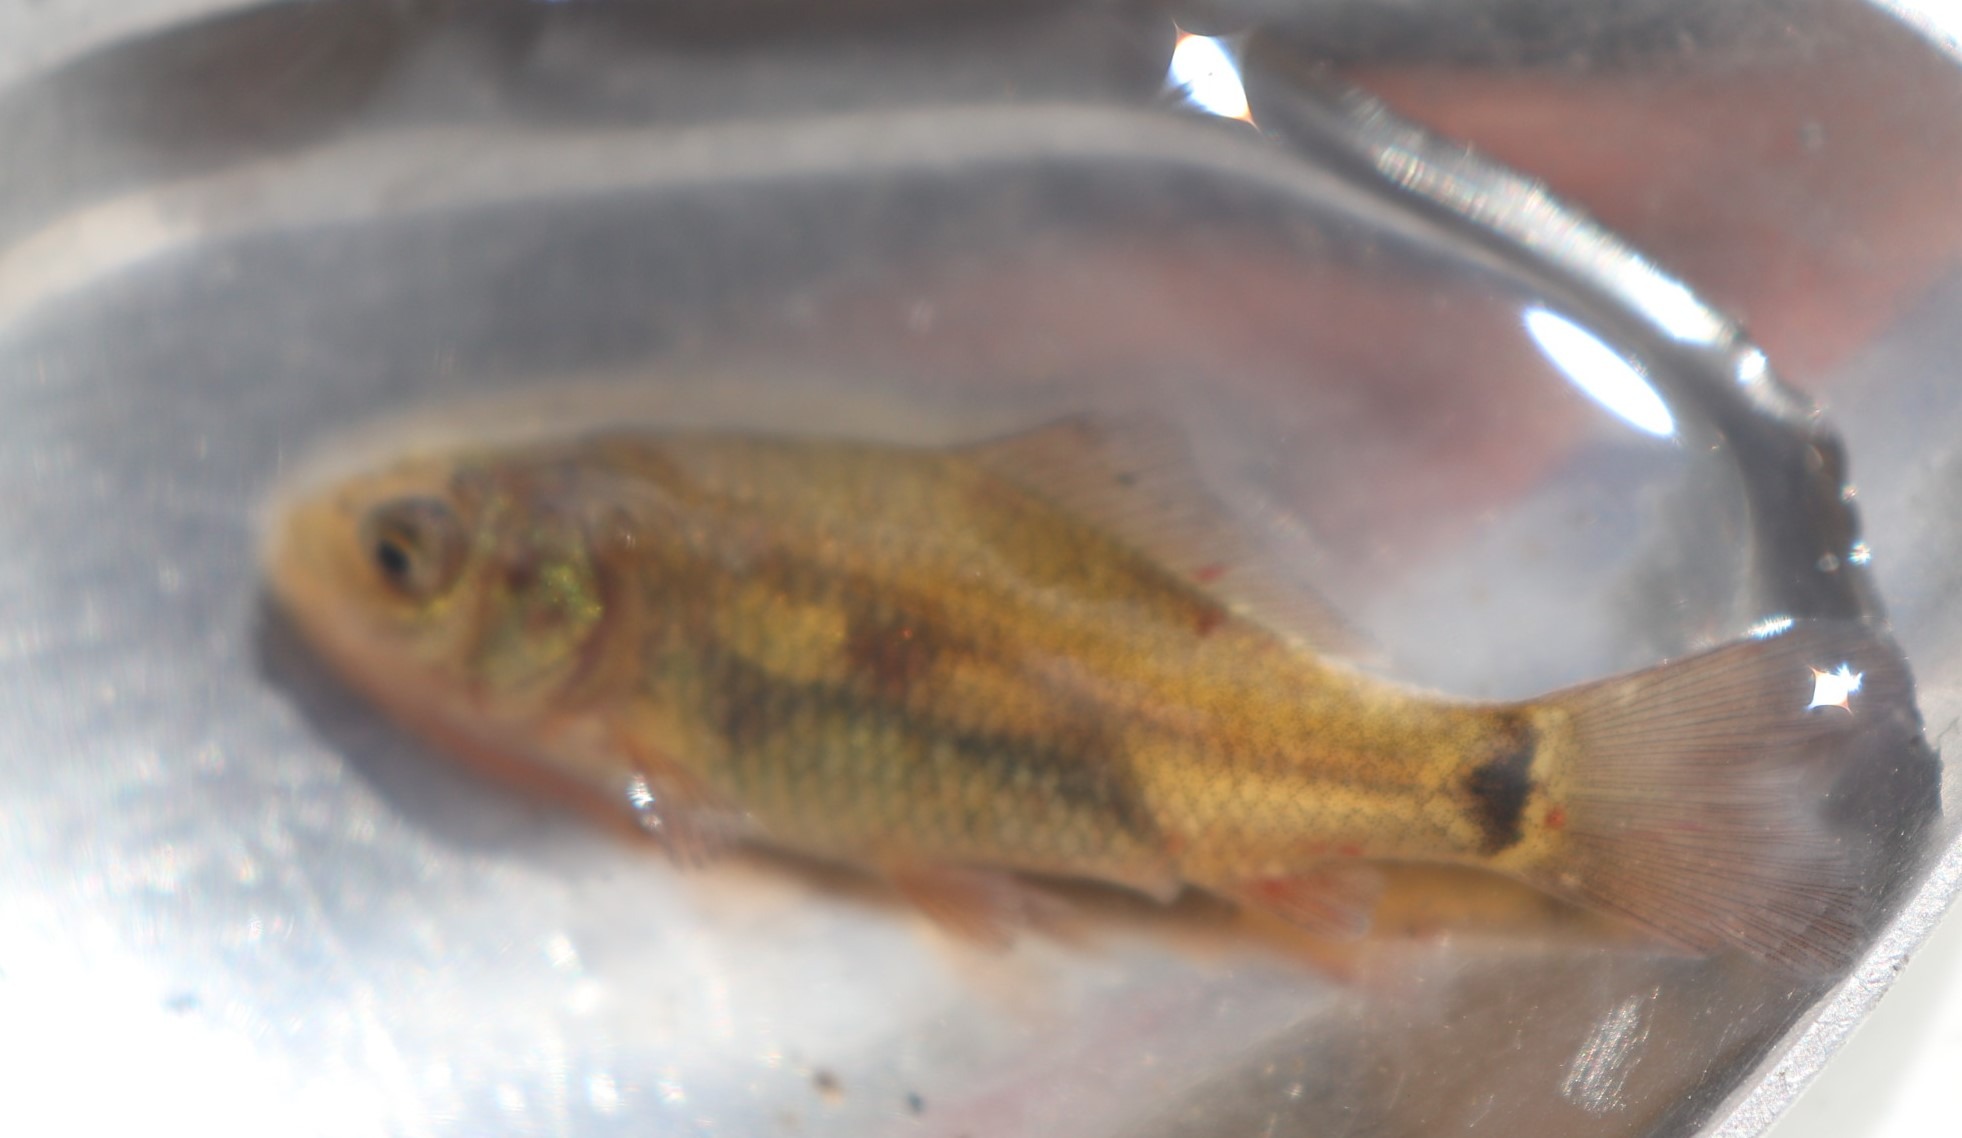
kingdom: Animalia
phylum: Chordata
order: Cypriniformes
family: Cyprinidae
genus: Carassius
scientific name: Carassius carassius
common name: Karusse
